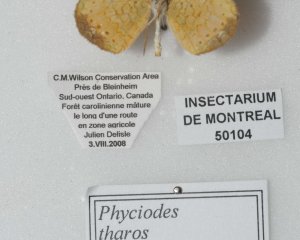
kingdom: Animalia
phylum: Arthropoda
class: Insecta
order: Lepidoptera
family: Nymphalidae
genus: Phyciodes
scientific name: Phyciodes tharos
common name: Pearl Crescent
